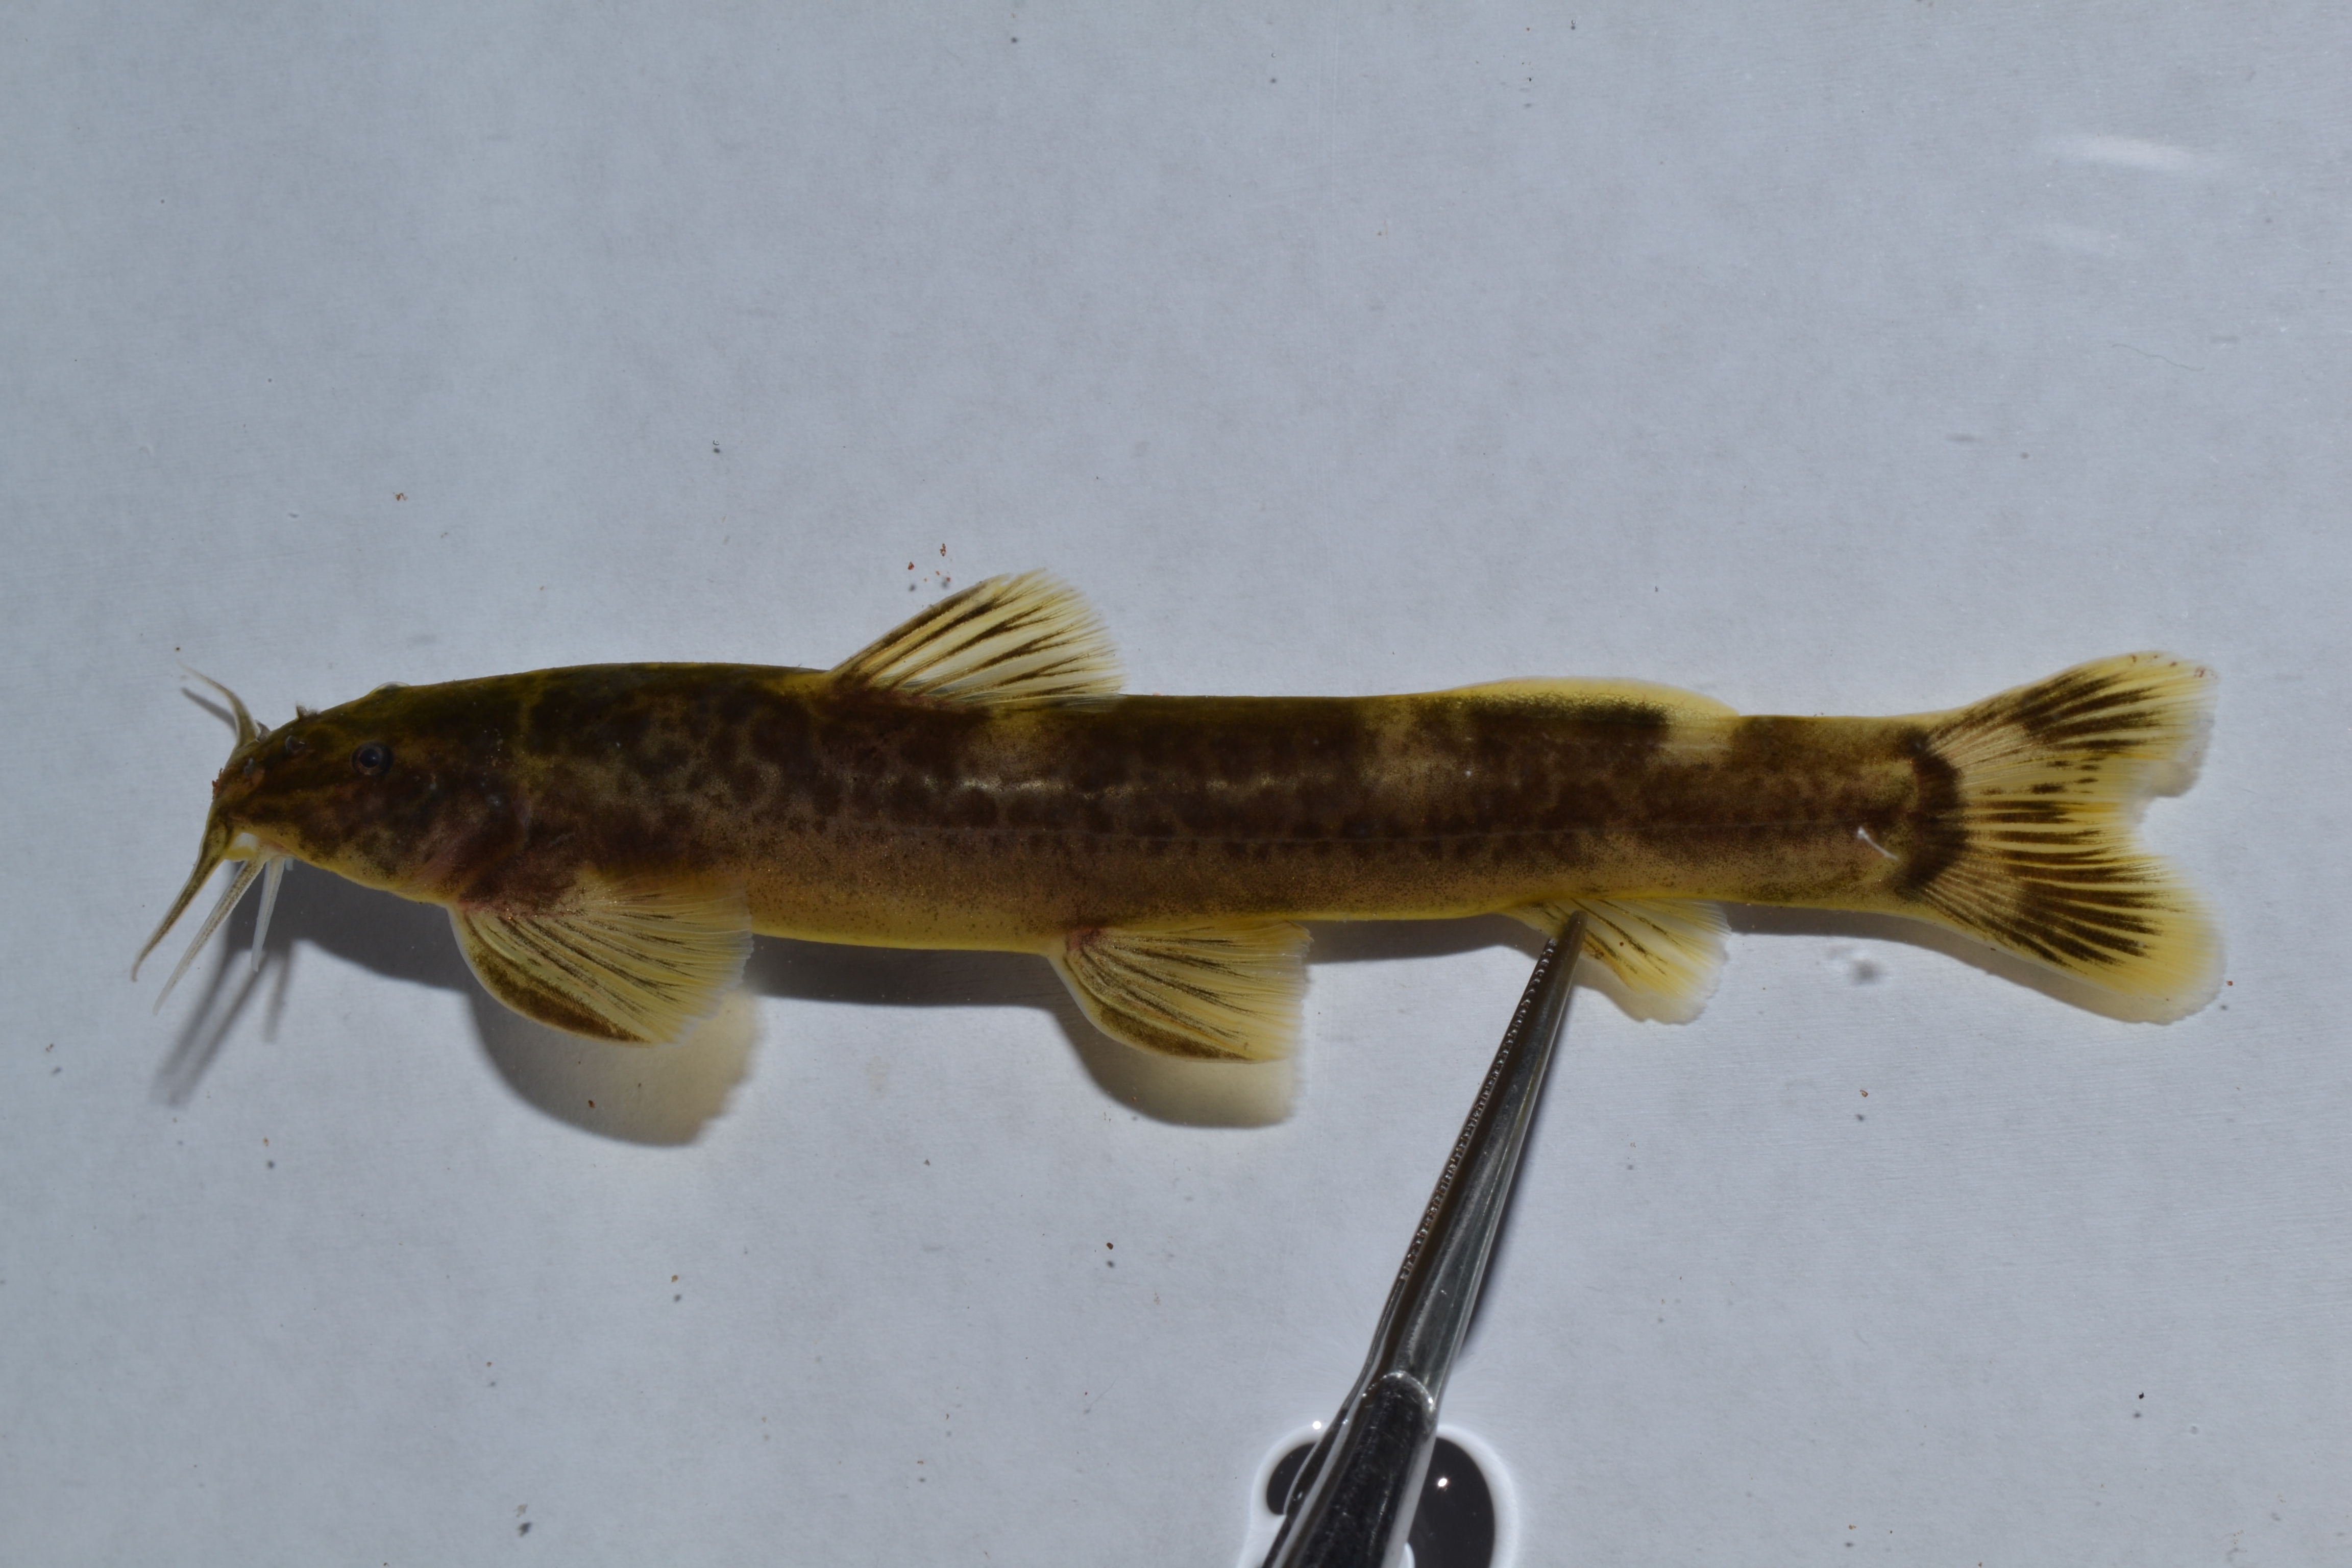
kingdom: Animalia
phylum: Chordata
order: Siluriformes
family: Amphiliidae
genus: Amphilius
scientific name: Amphilius uranoscopus
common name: Stargazer mountain catfish
